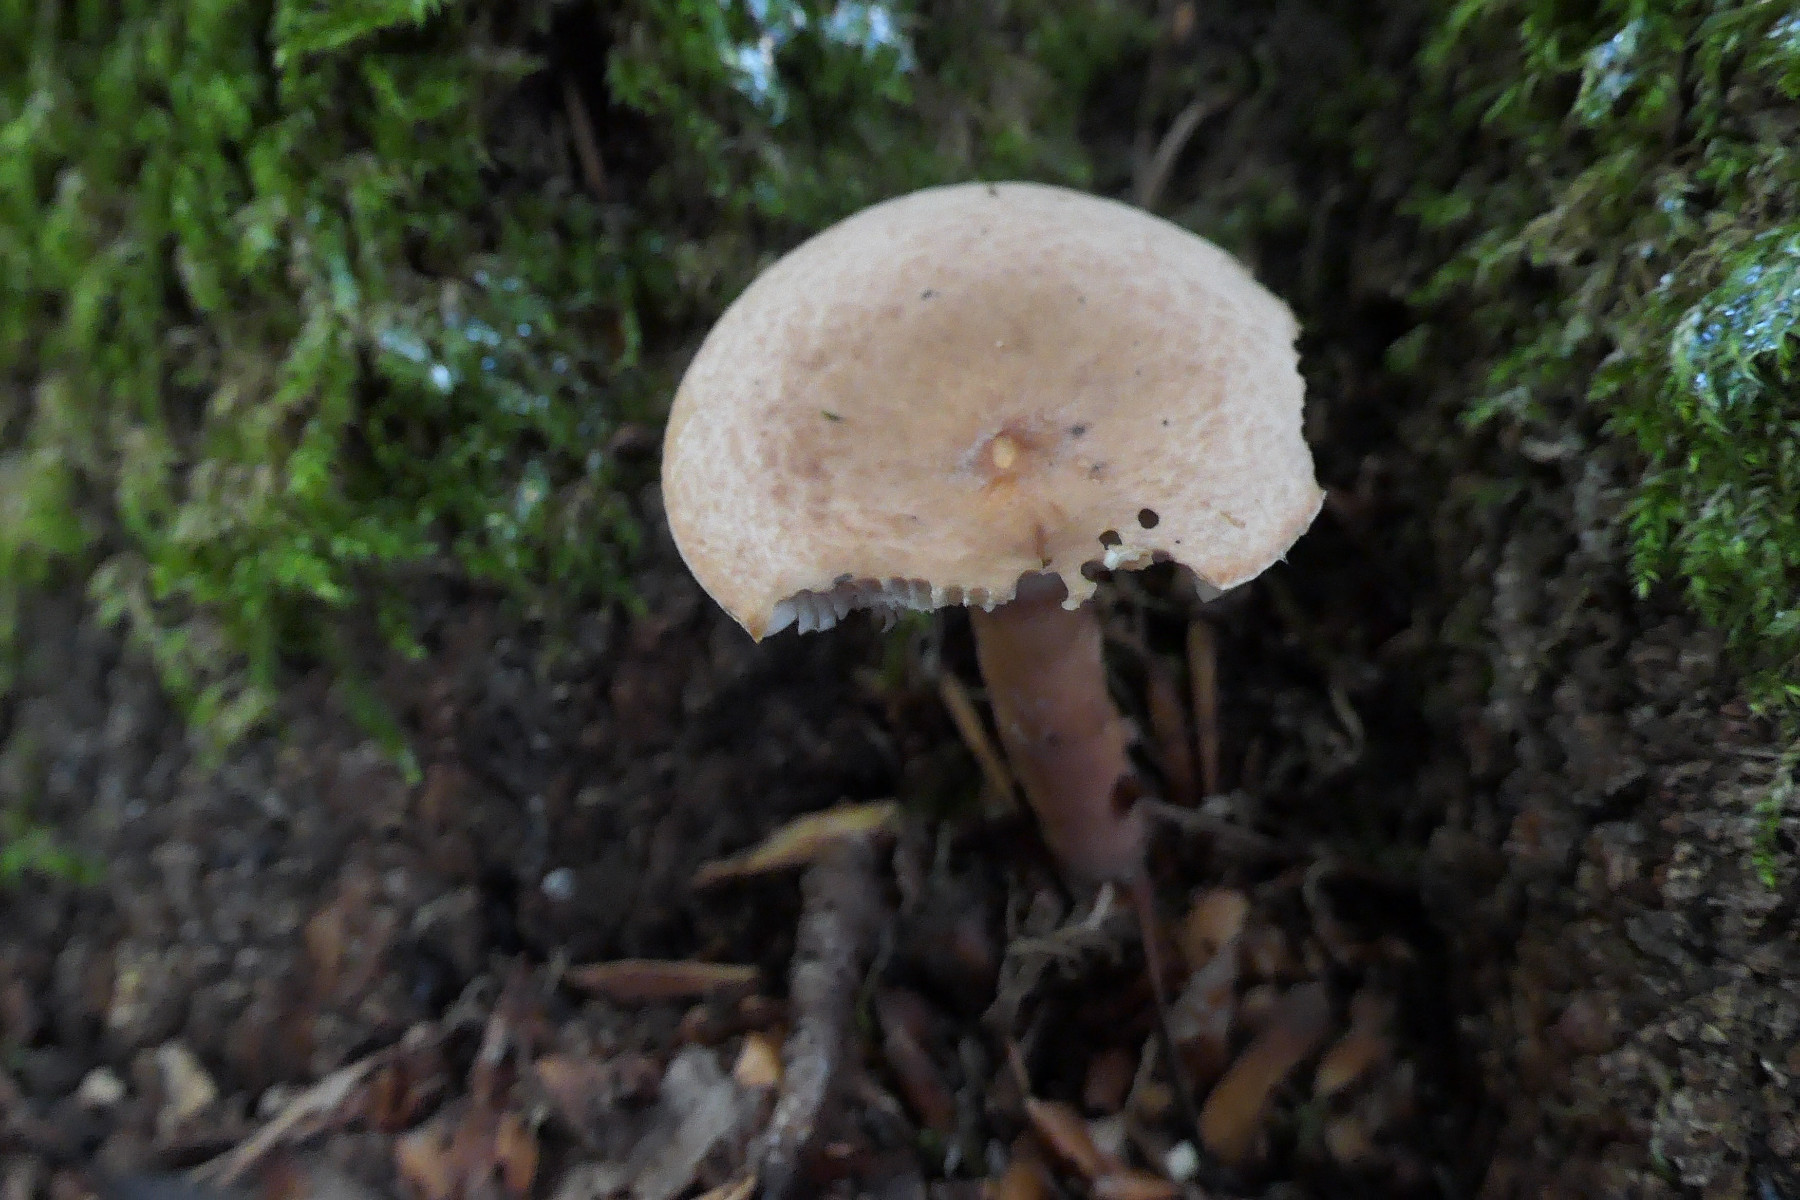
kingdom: Fungi
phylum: Basidiomycota
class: Agaricomycetes
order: Russulales
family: Russulaceae
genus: Lactarius
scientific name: Lactarius subdulcis
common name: sødlig mælkehat
